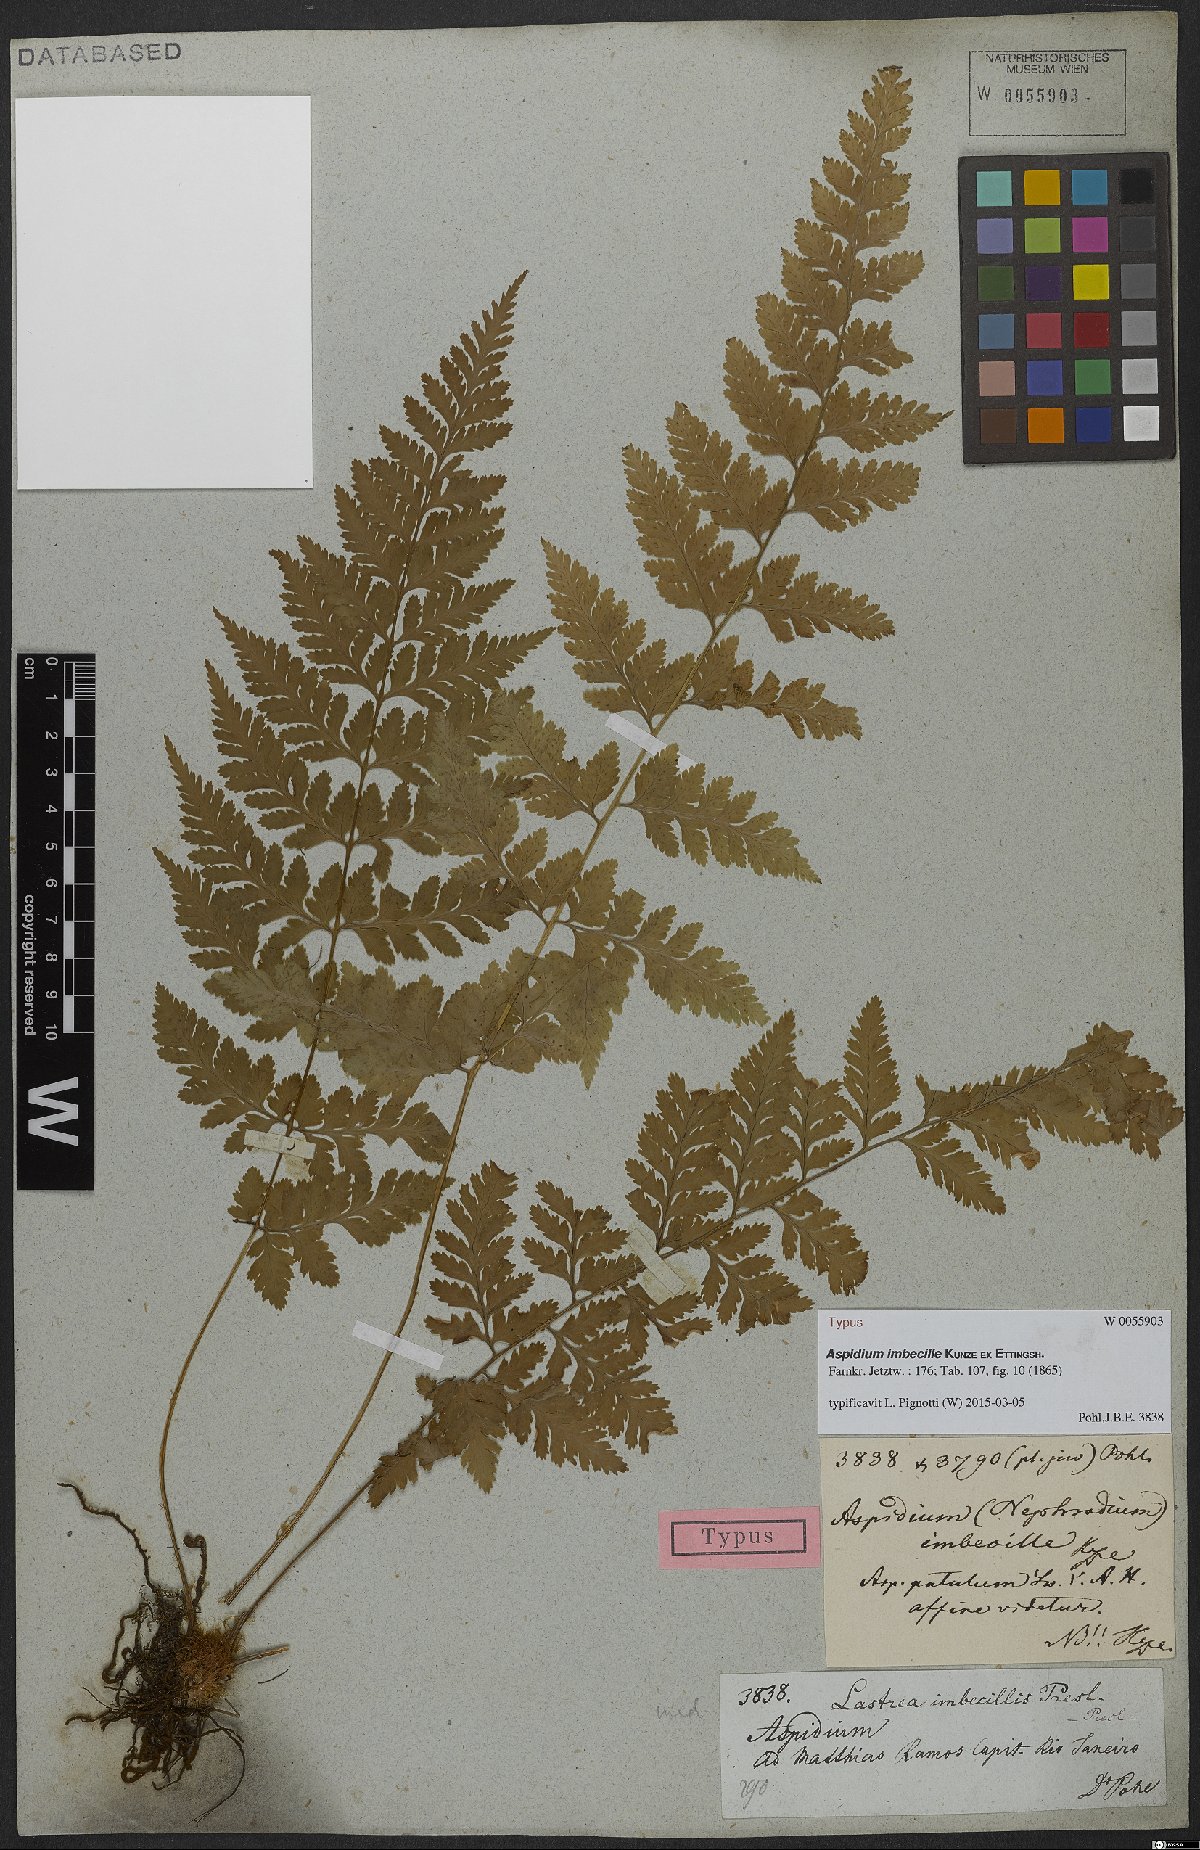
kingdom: Plantae
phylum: Tracheophyta
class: Polypodiopsida
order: Polypodiales
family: Dryopteridaceae
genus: Dryopteris
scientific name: Dryopteris patula
